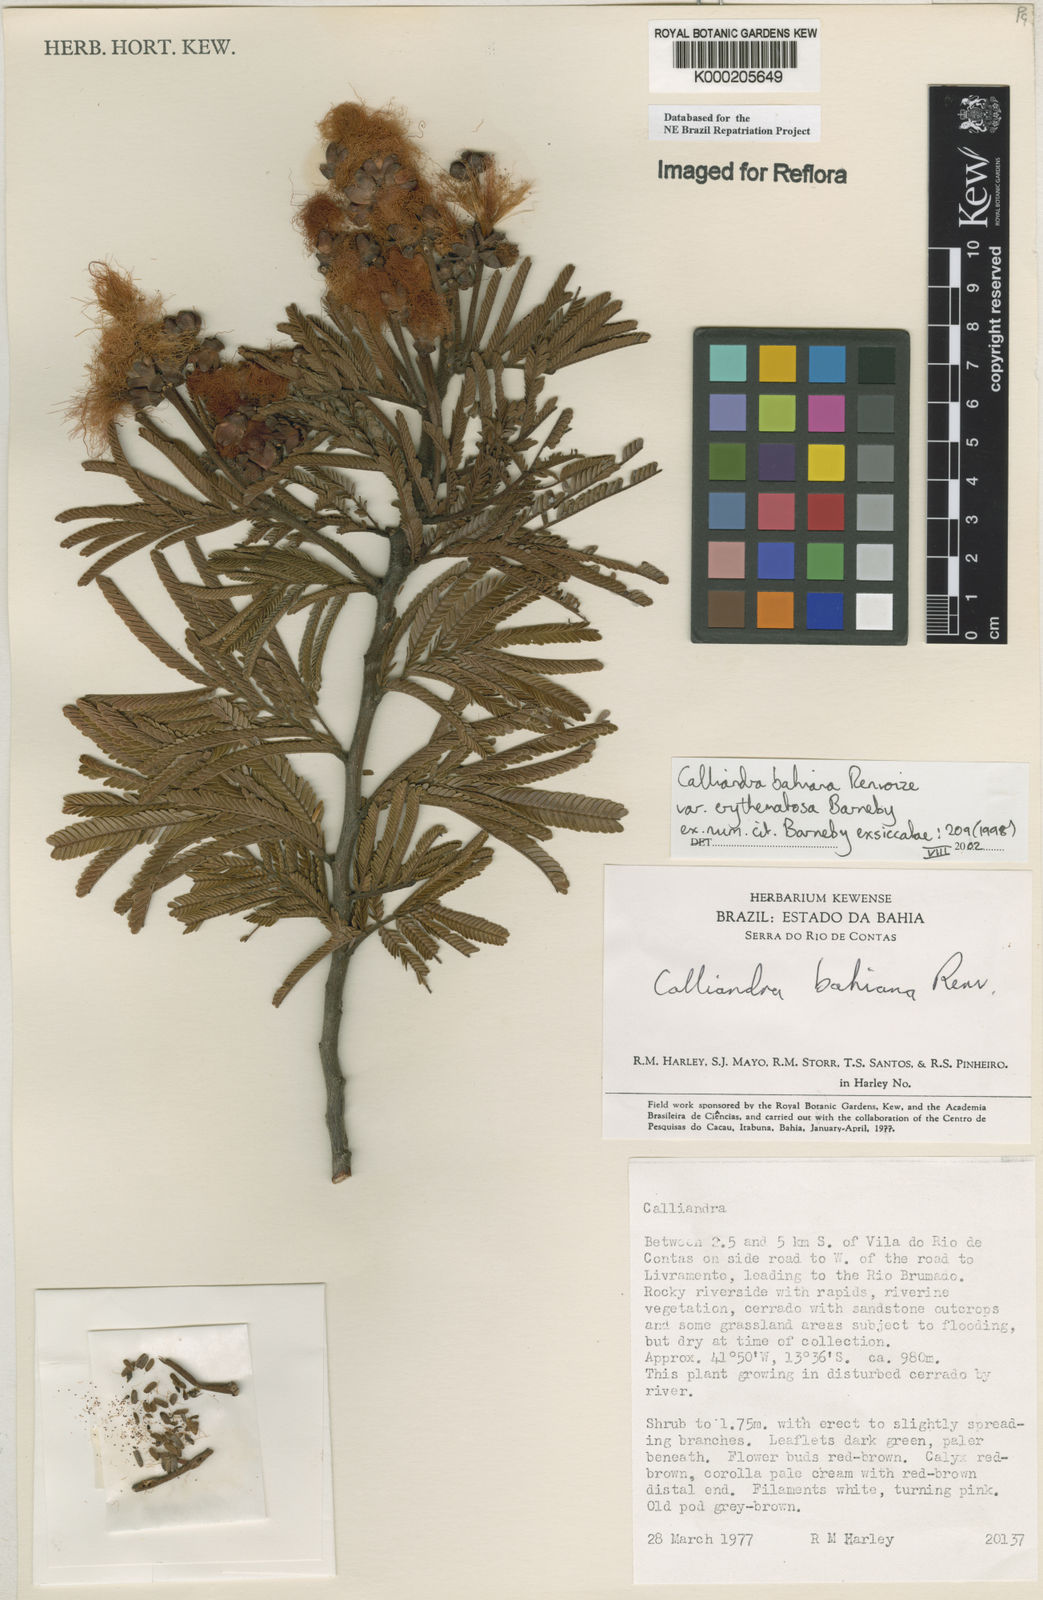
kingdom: Plantae
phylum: Tracheophyta
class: Magnoliopsida
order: Fabales
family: Fabaceae
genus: Calliandra
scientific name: Calliandra bahiana
